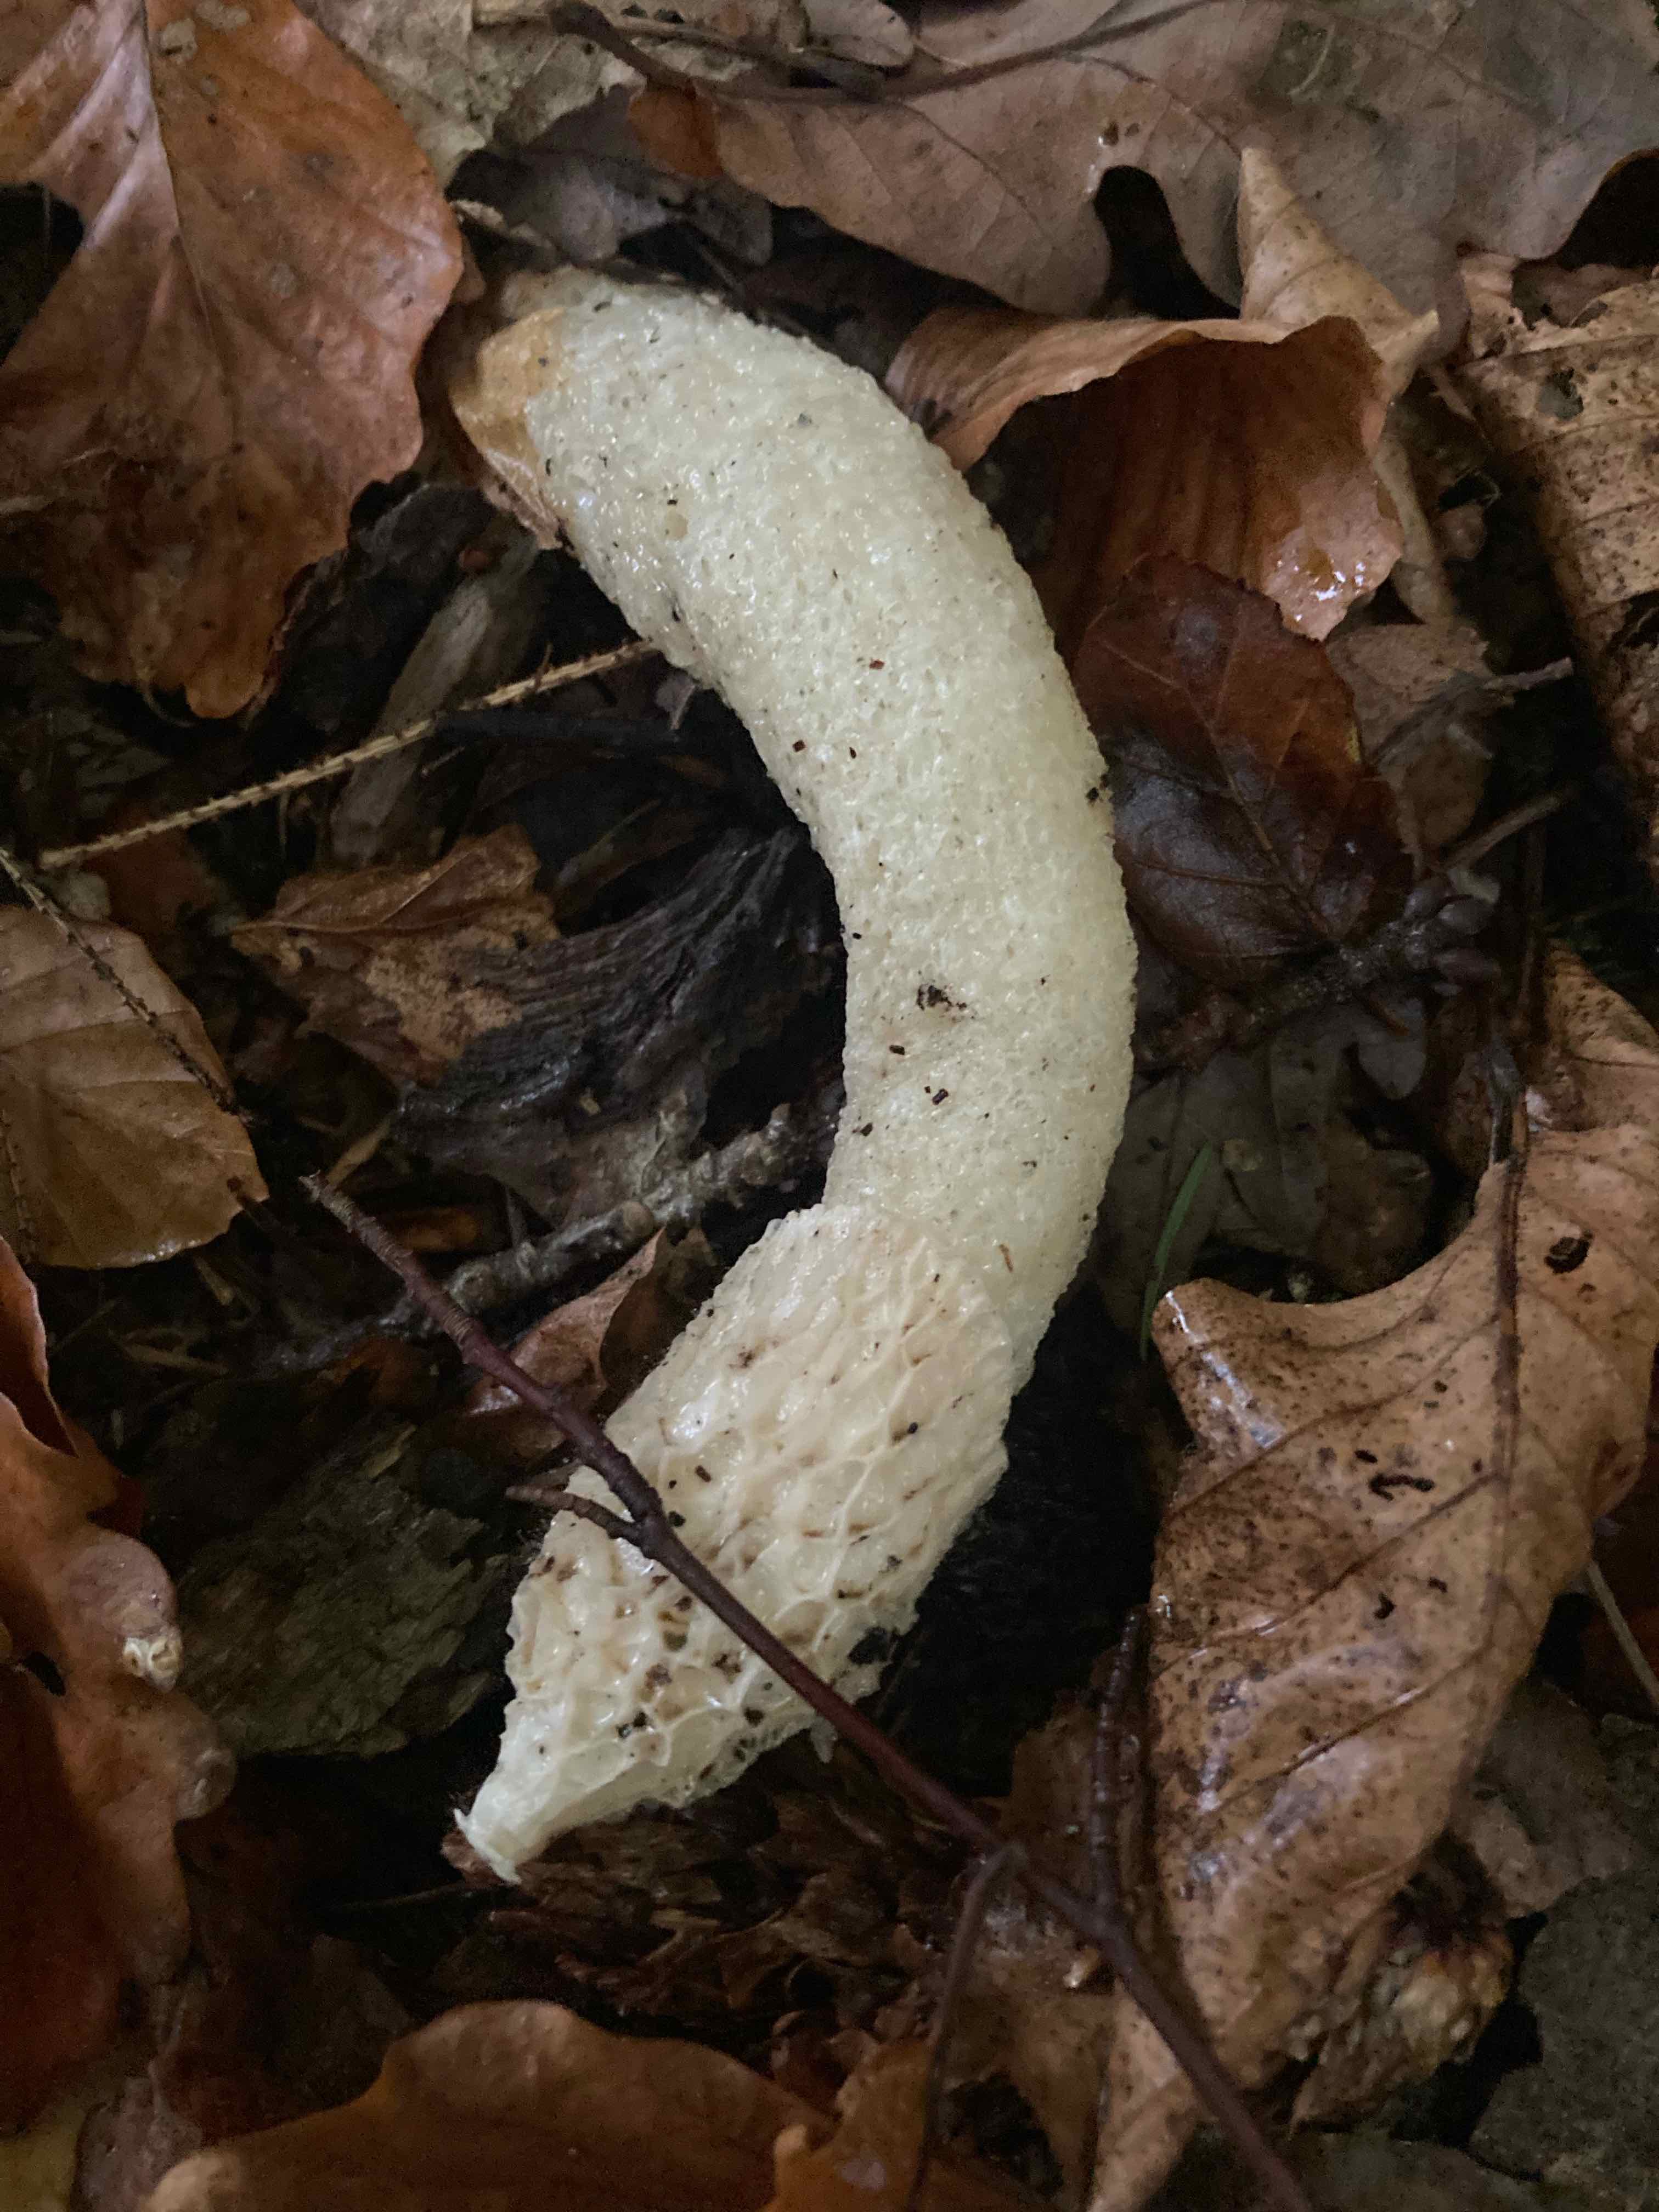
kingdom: Fungi
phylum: Basidiomycota
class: Agaricomycetes
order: Phallales
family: Phallaceae
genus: Phallus
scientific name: Phallus impudicus
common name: almindelig stinksvamp
